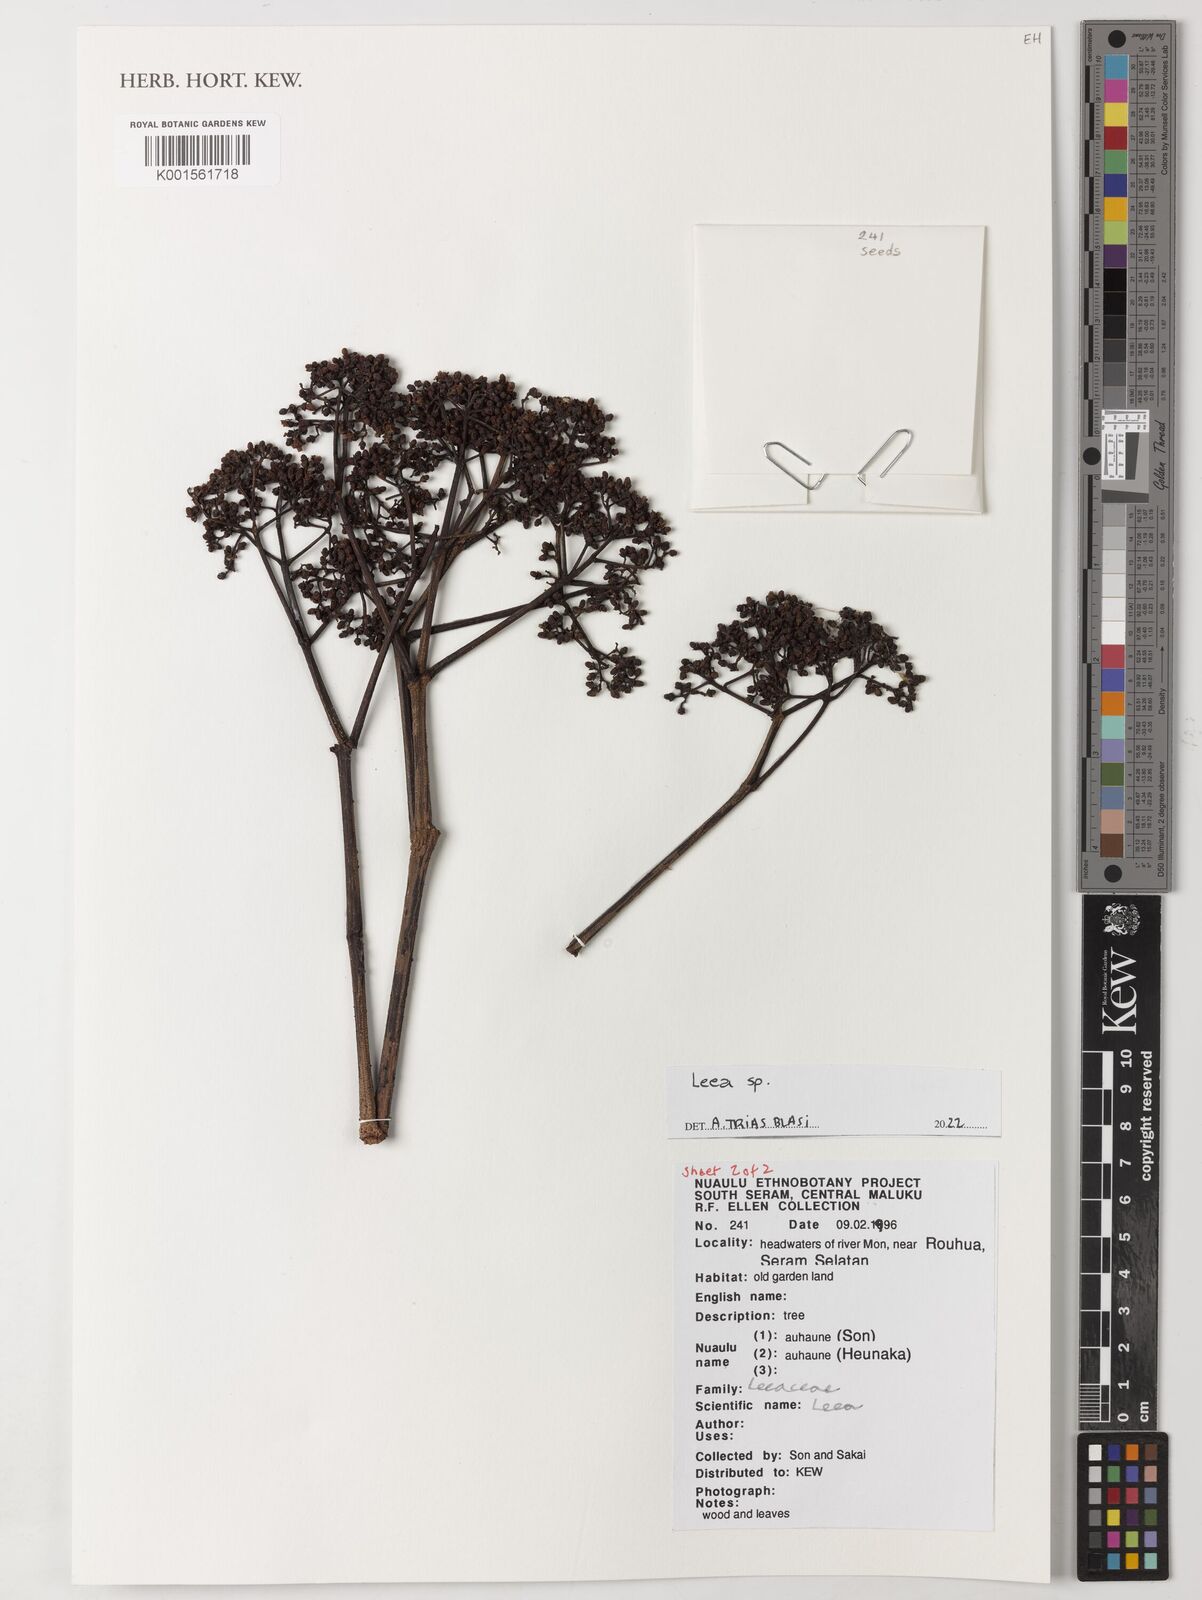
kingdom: Plantae
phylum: Tracheophyta
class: Magnoliopsida
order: Vitales
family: Vitaceae
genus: Leea
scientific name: Leea
